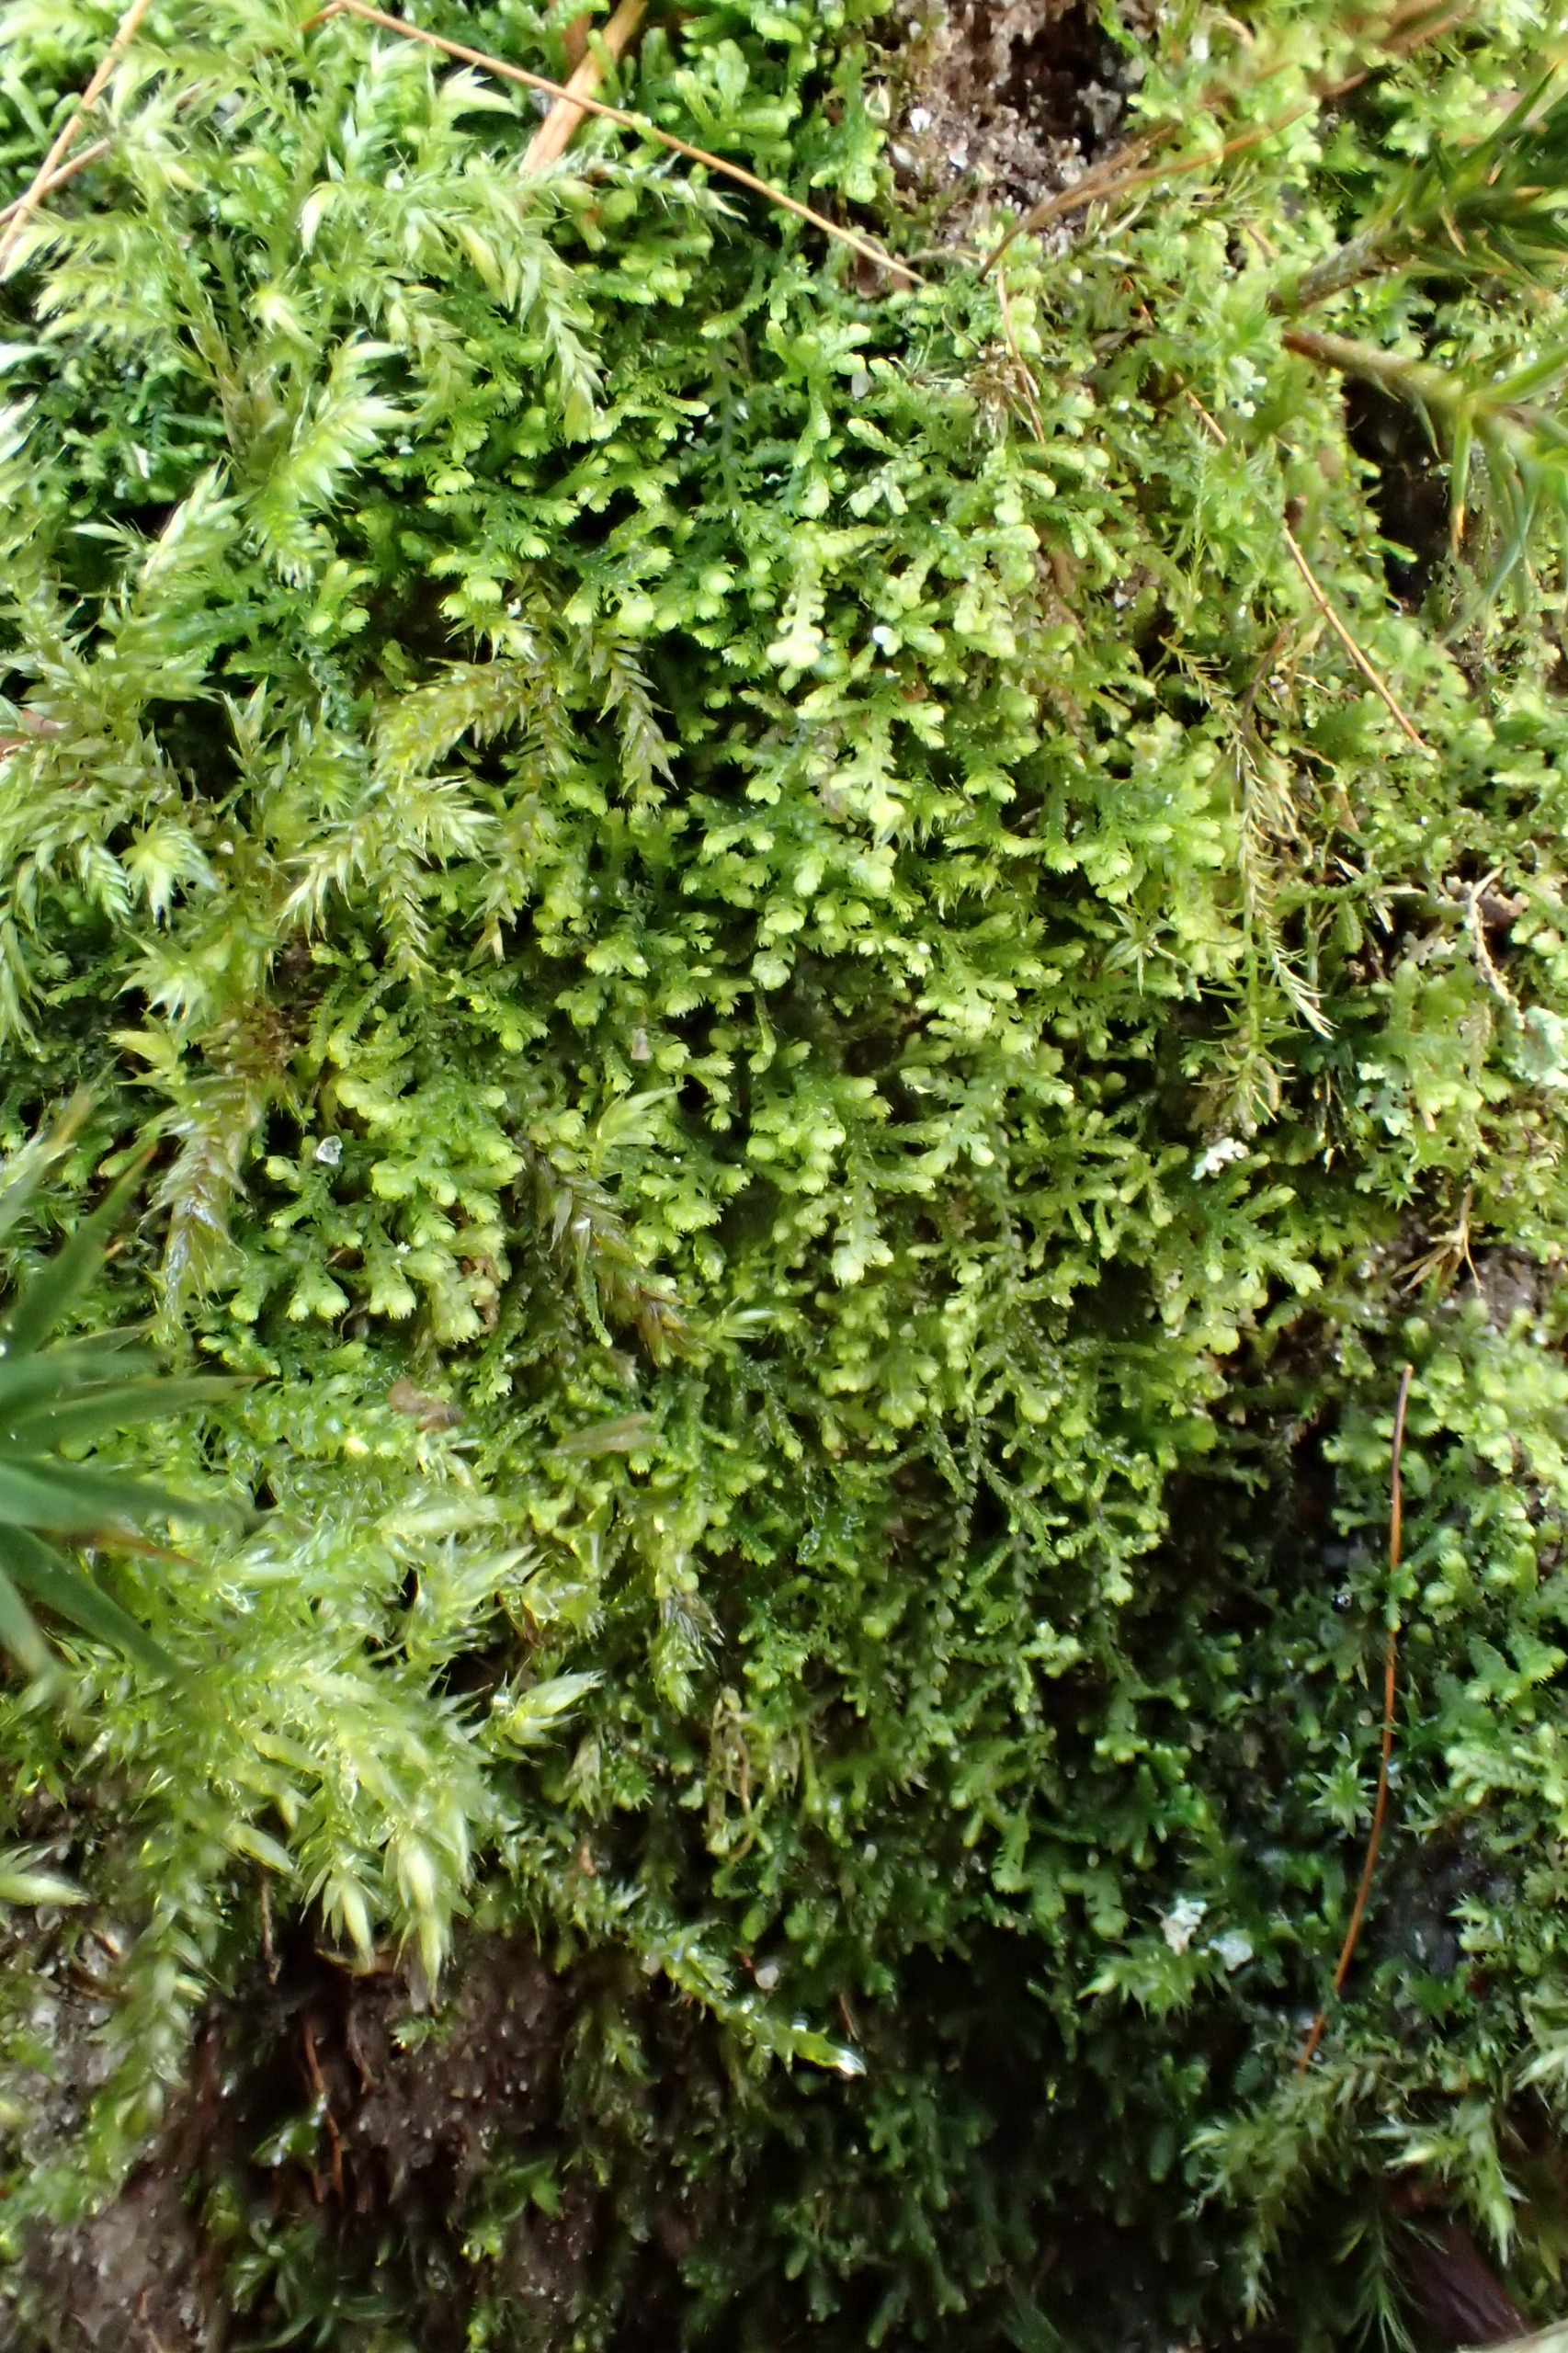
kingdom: Plantae
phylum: Marchantiophyta
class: Jungermanniopsida
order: Jungermanniales
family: Lepidoziaceae
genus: Lepidozia
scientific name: Lepidozia reptans
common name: Krybende fingermos
